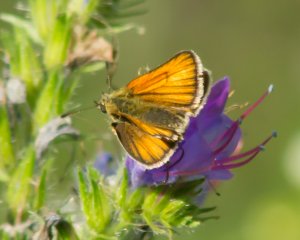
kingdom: Animalia
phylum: Arthropoda
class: Insecta
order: Lepidoptera
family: Hesperiidae
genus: Thymelicus
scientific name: Thymelicus lineola
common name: European Skipper
